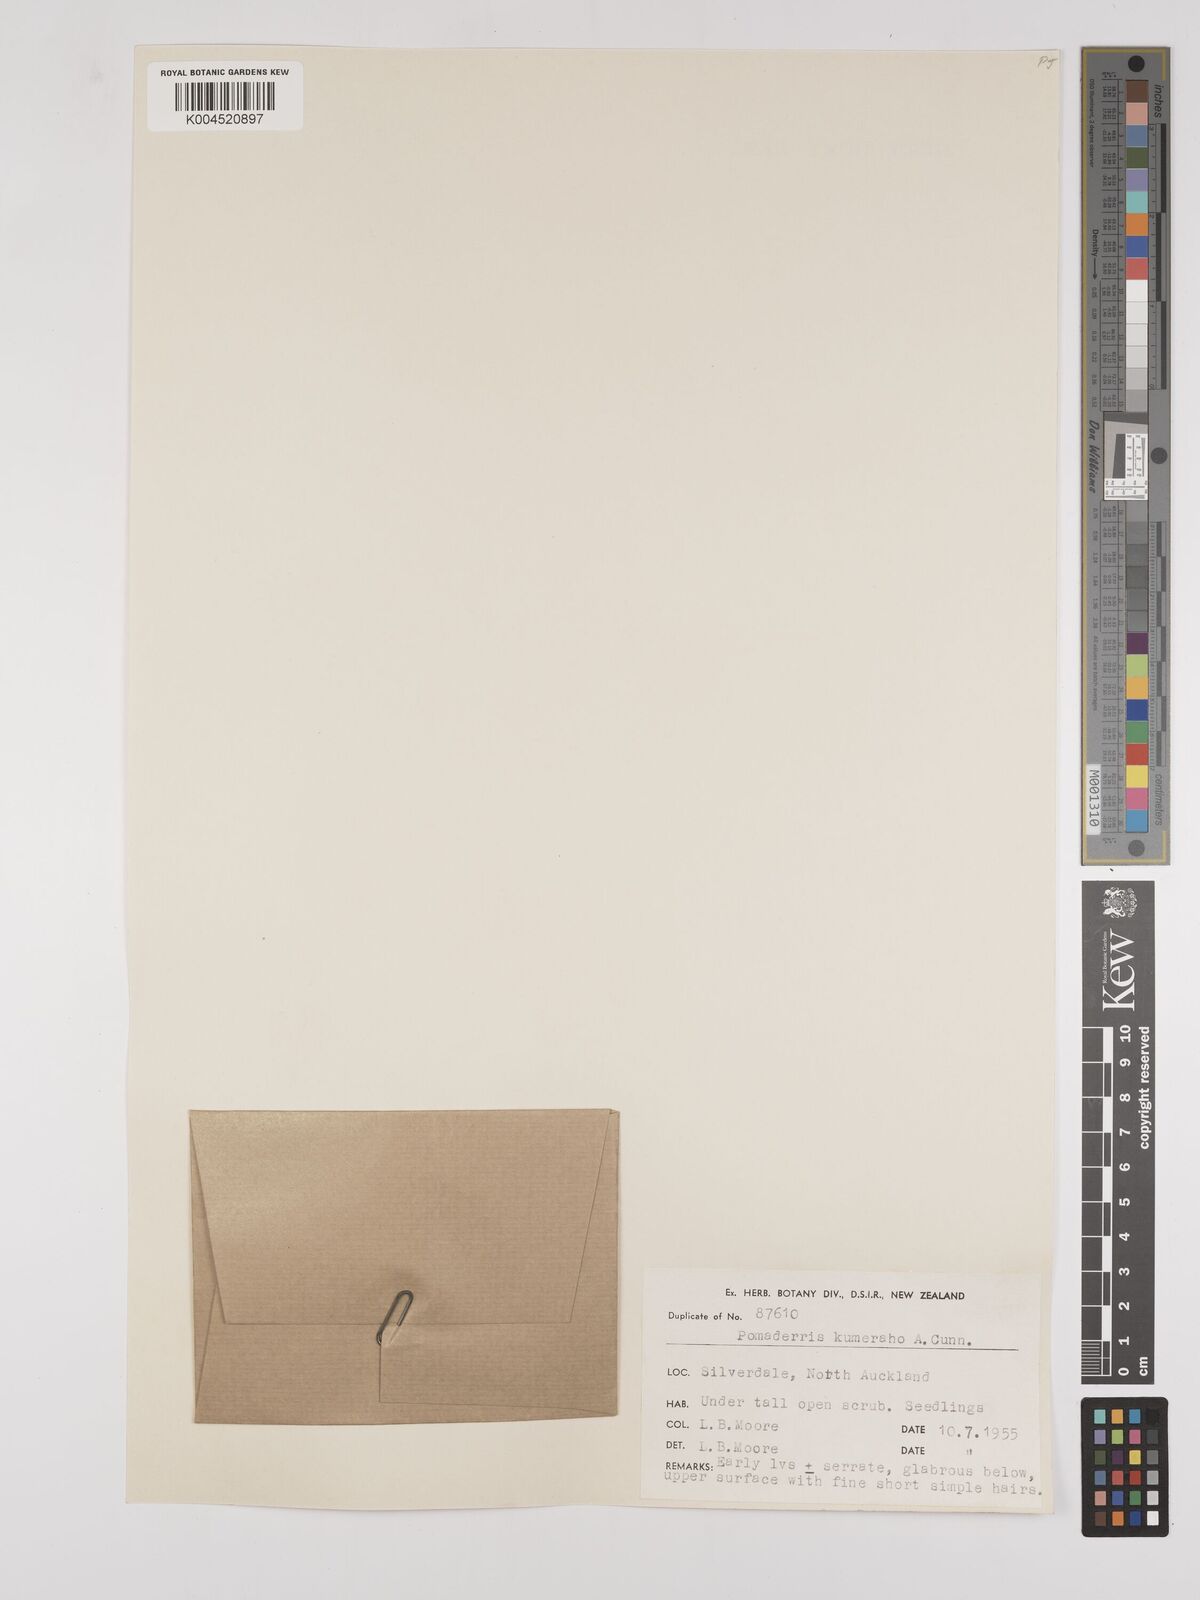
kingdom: Plantae
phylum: Tracheophyta
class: Magnoliopsida
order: Rosales
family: Rhamnaceae
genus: Pomaderris
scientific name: Pomaderris kumeraho
